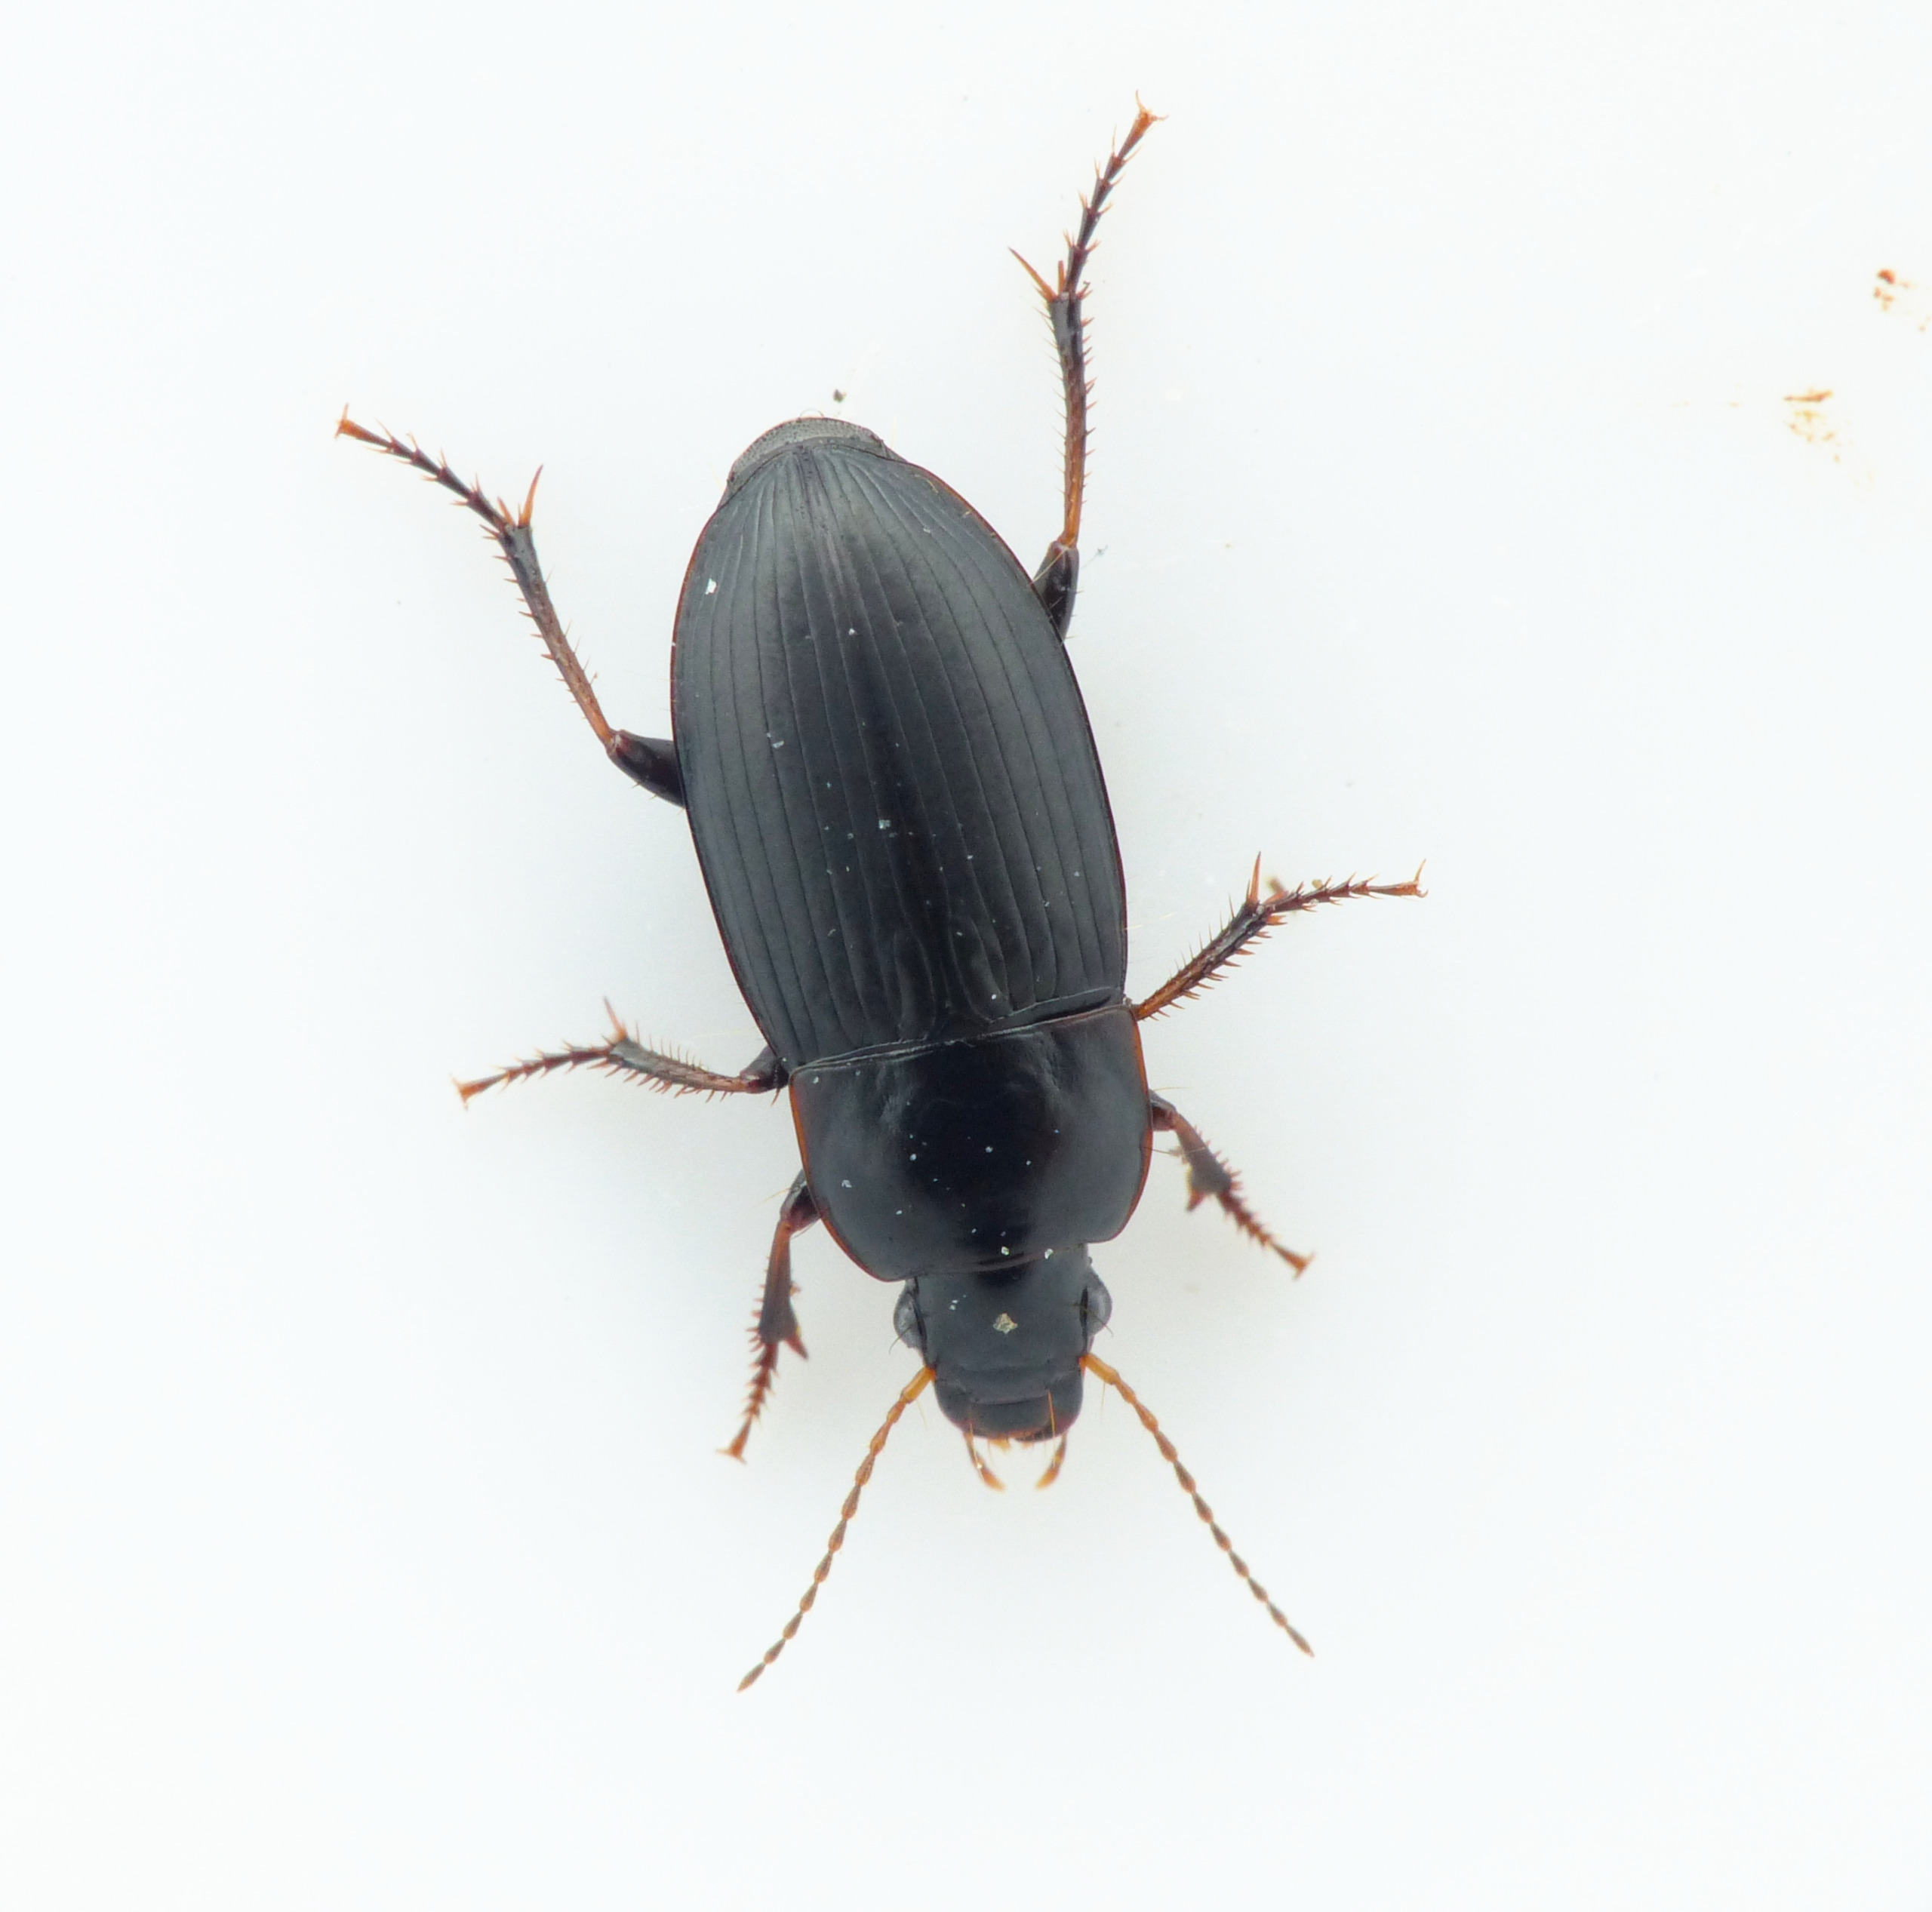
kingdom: Animalia
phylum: Arthropoda
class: Insecta
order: Coleoptera
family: Carabidae
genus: Harpalus
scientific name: Harpalus anxius
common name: Smal sandløber
